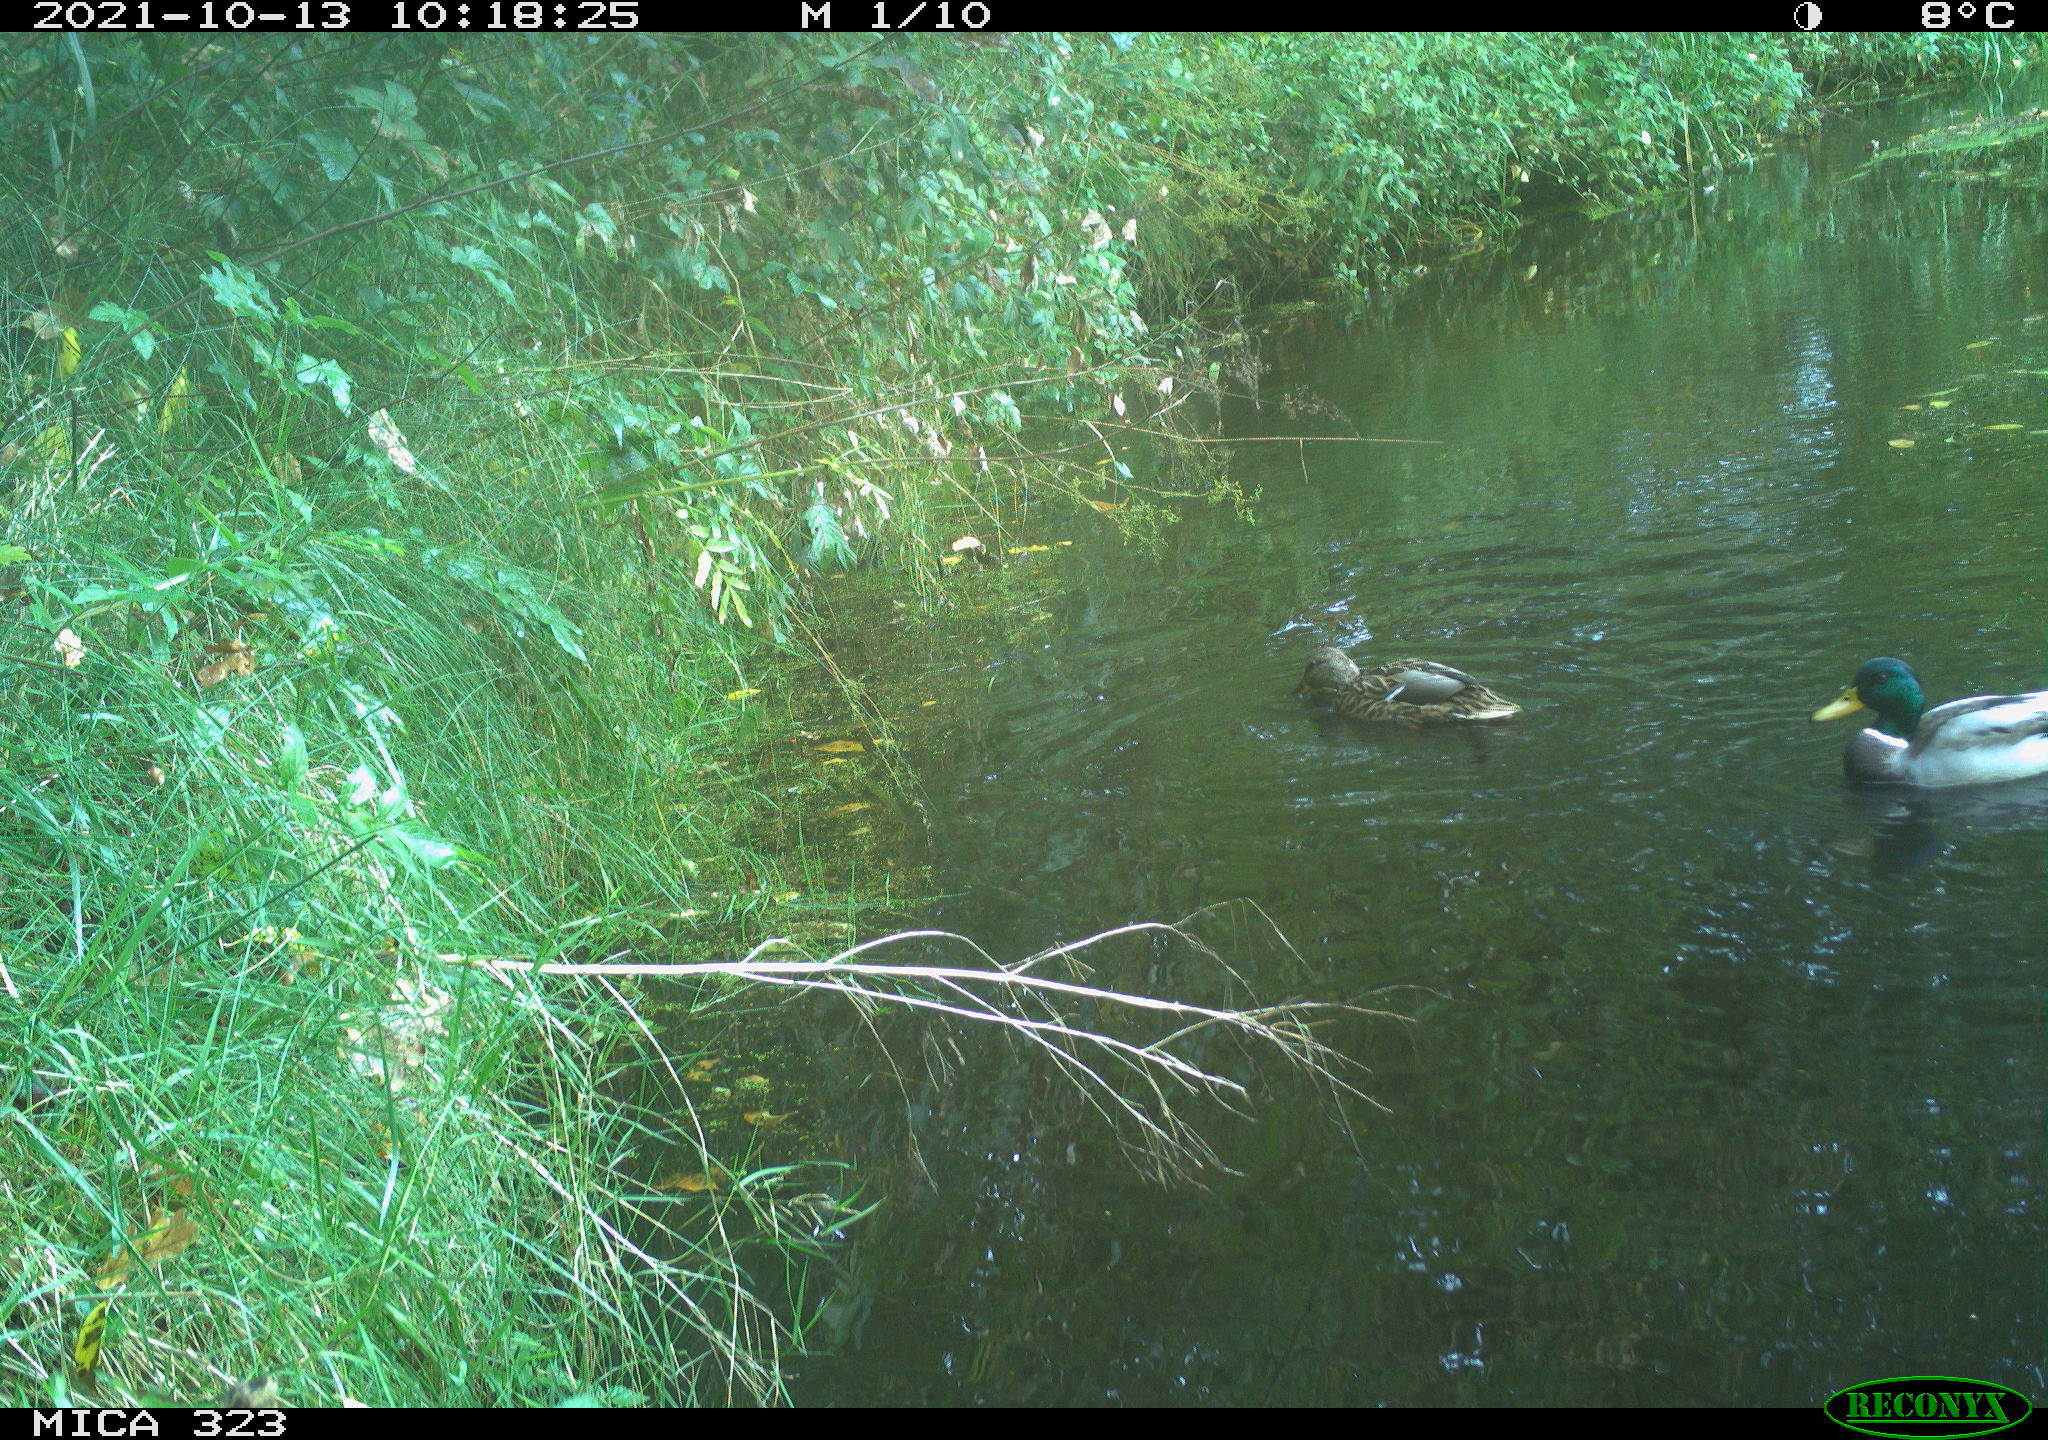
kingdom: Animalia
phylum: Chordata
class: Aves
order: Anseriformes
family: Anatidae
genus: Anas
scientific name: Anas platyrhynchos
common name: Mallard
